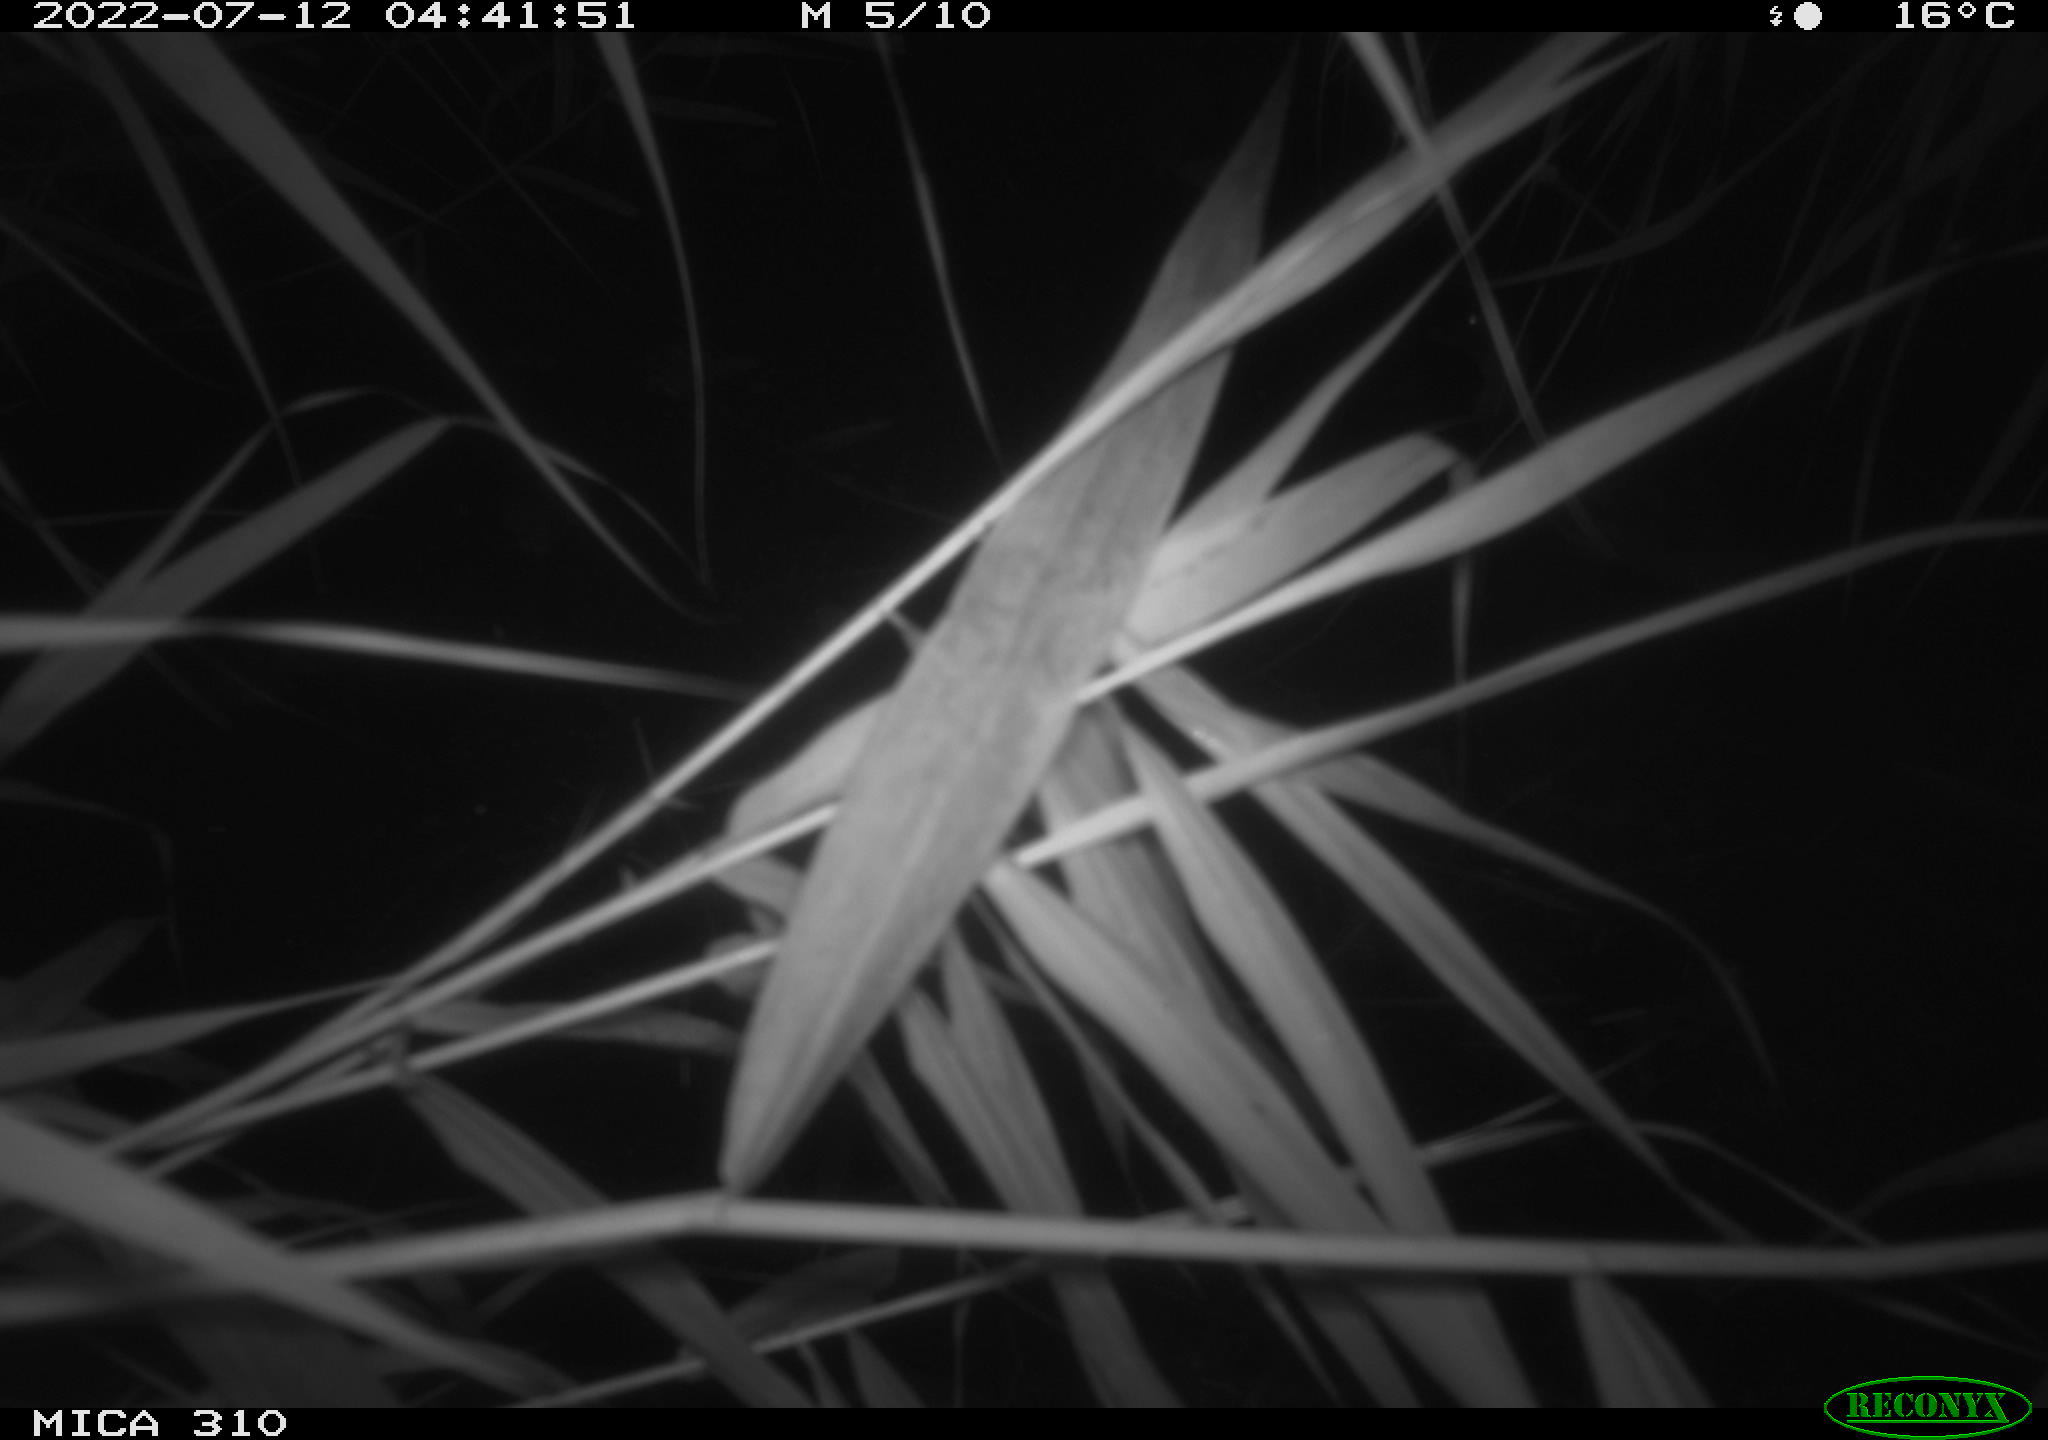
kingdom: Animalia
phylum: Chordata
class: Aves
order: Anseriformes
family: Anatidae
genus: Anas
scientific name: Anas platyrhynchos
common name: Mallard
